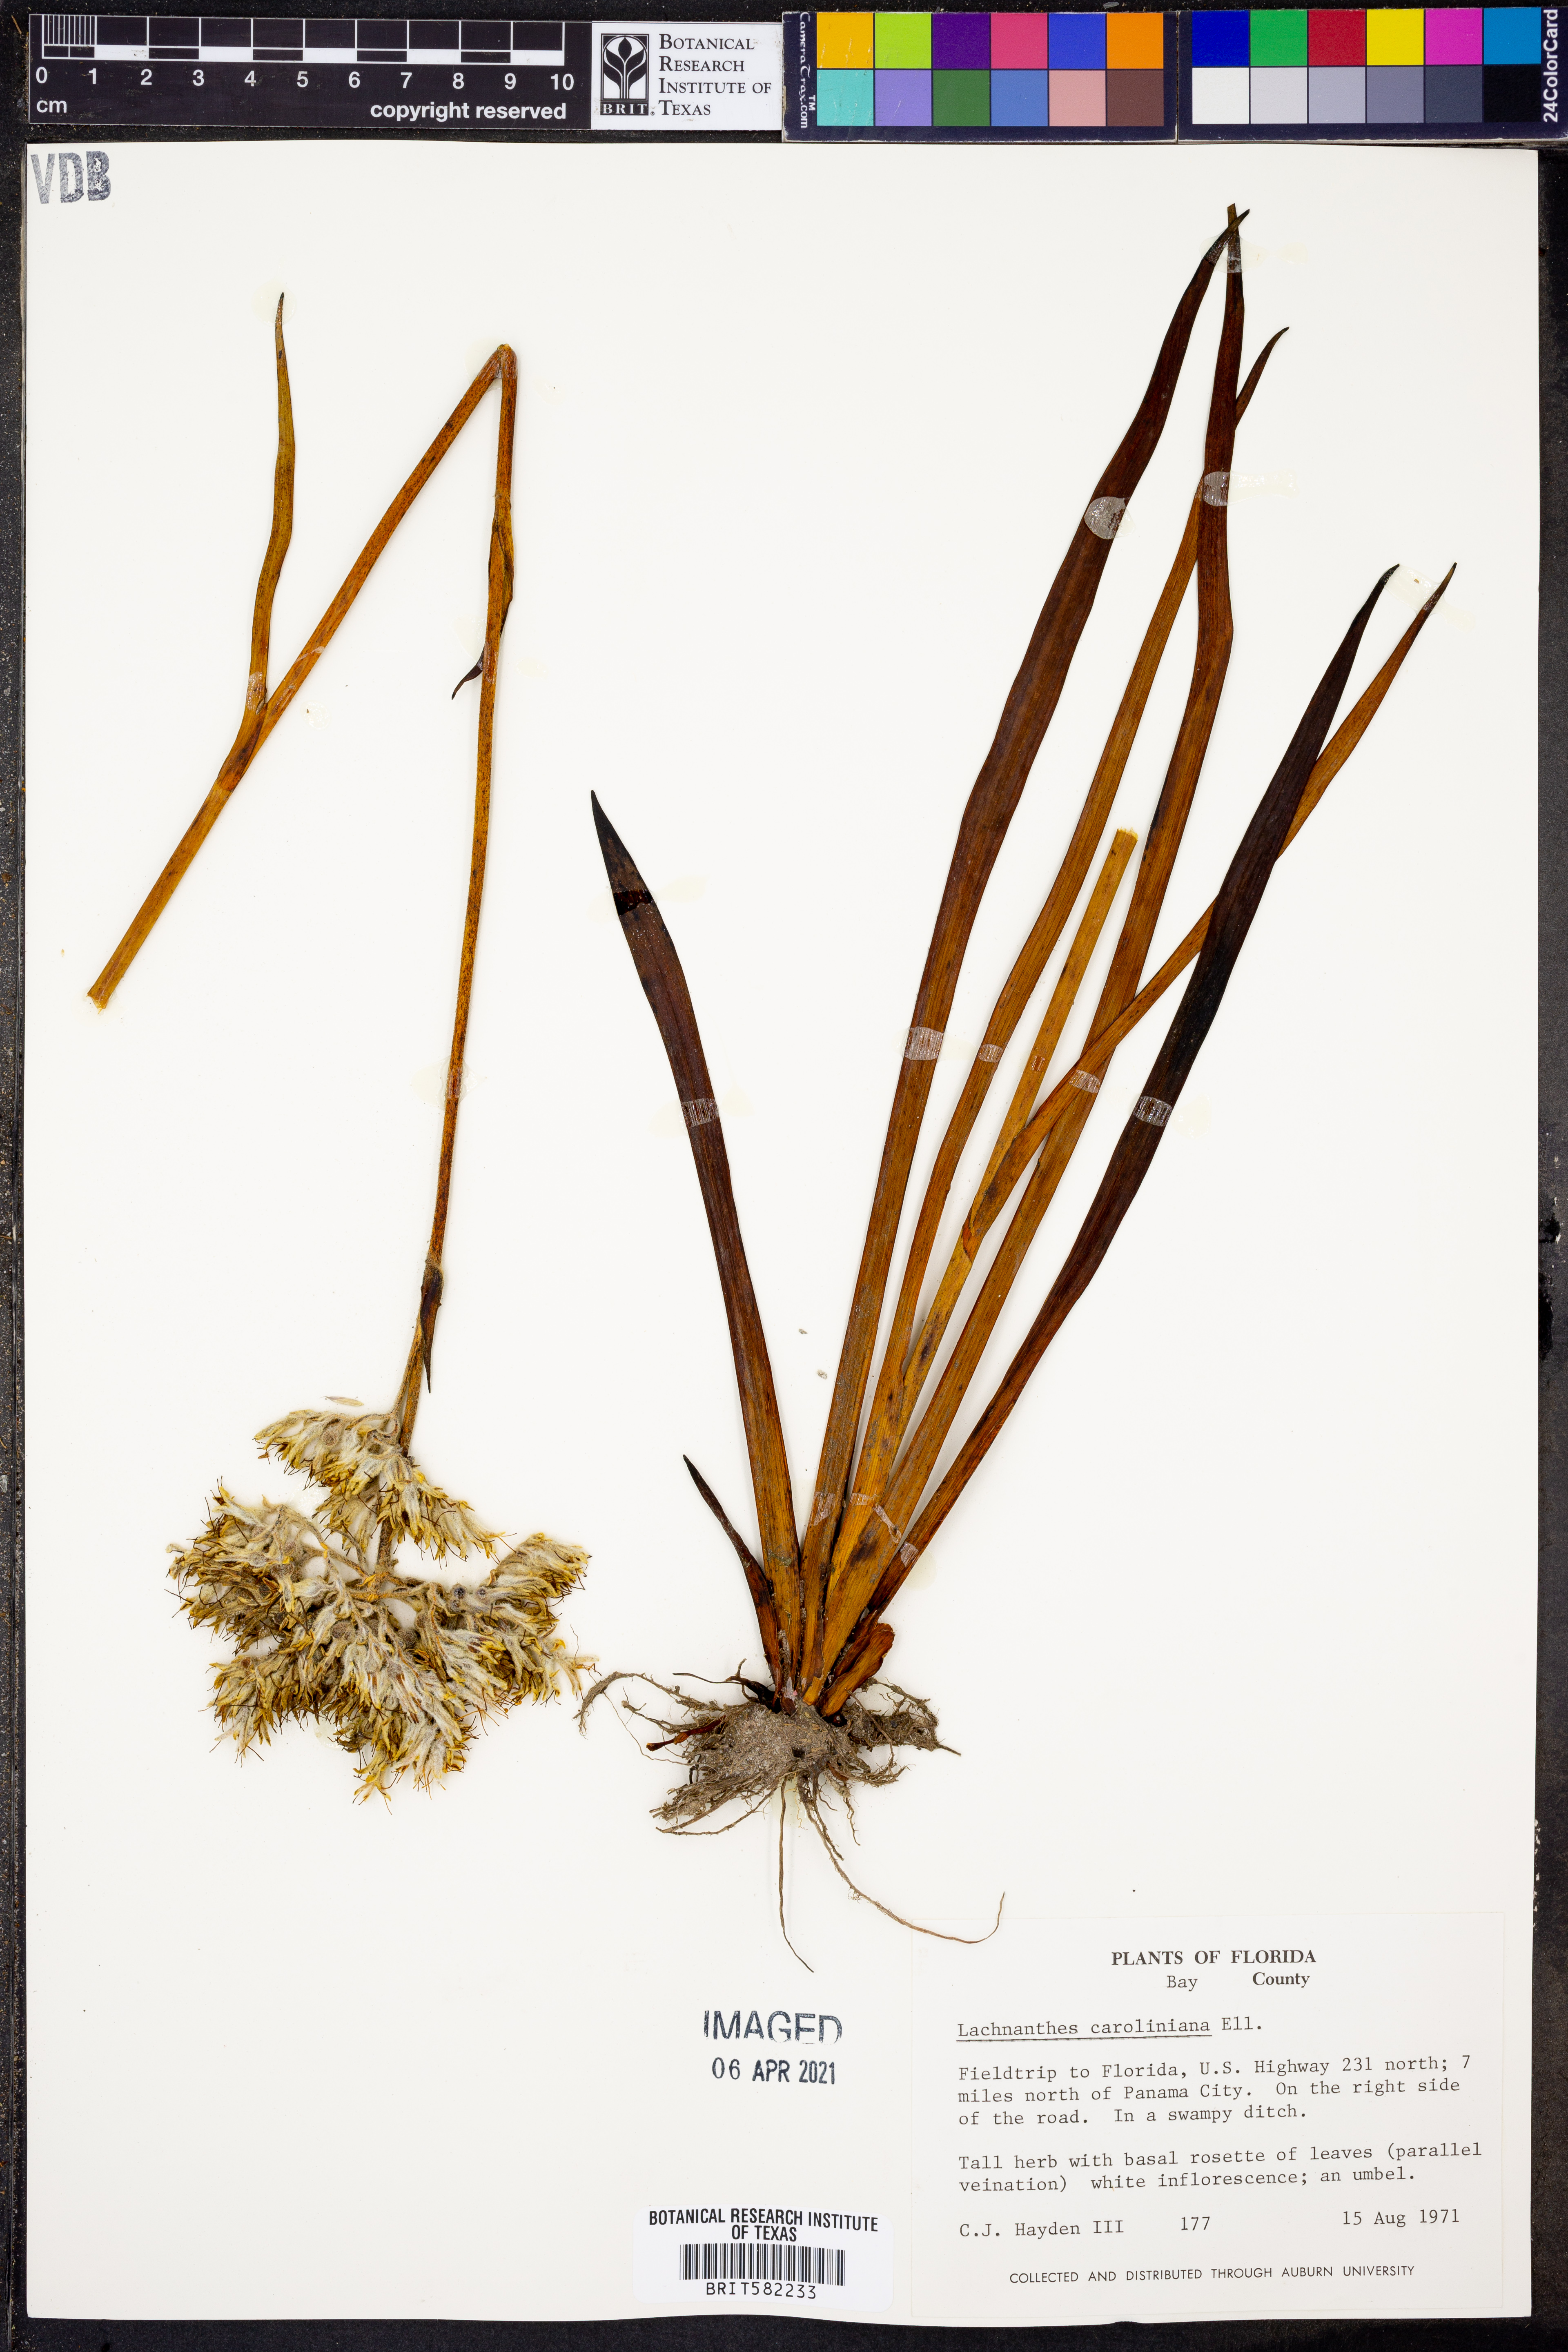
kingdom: Plantae
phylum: Tracheophyta
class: Liliopsida
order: Commelinales
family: Haemodoraceae
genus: Lachnanthes
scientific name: Lachnanthes caroliniana
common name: Carolina redroot
